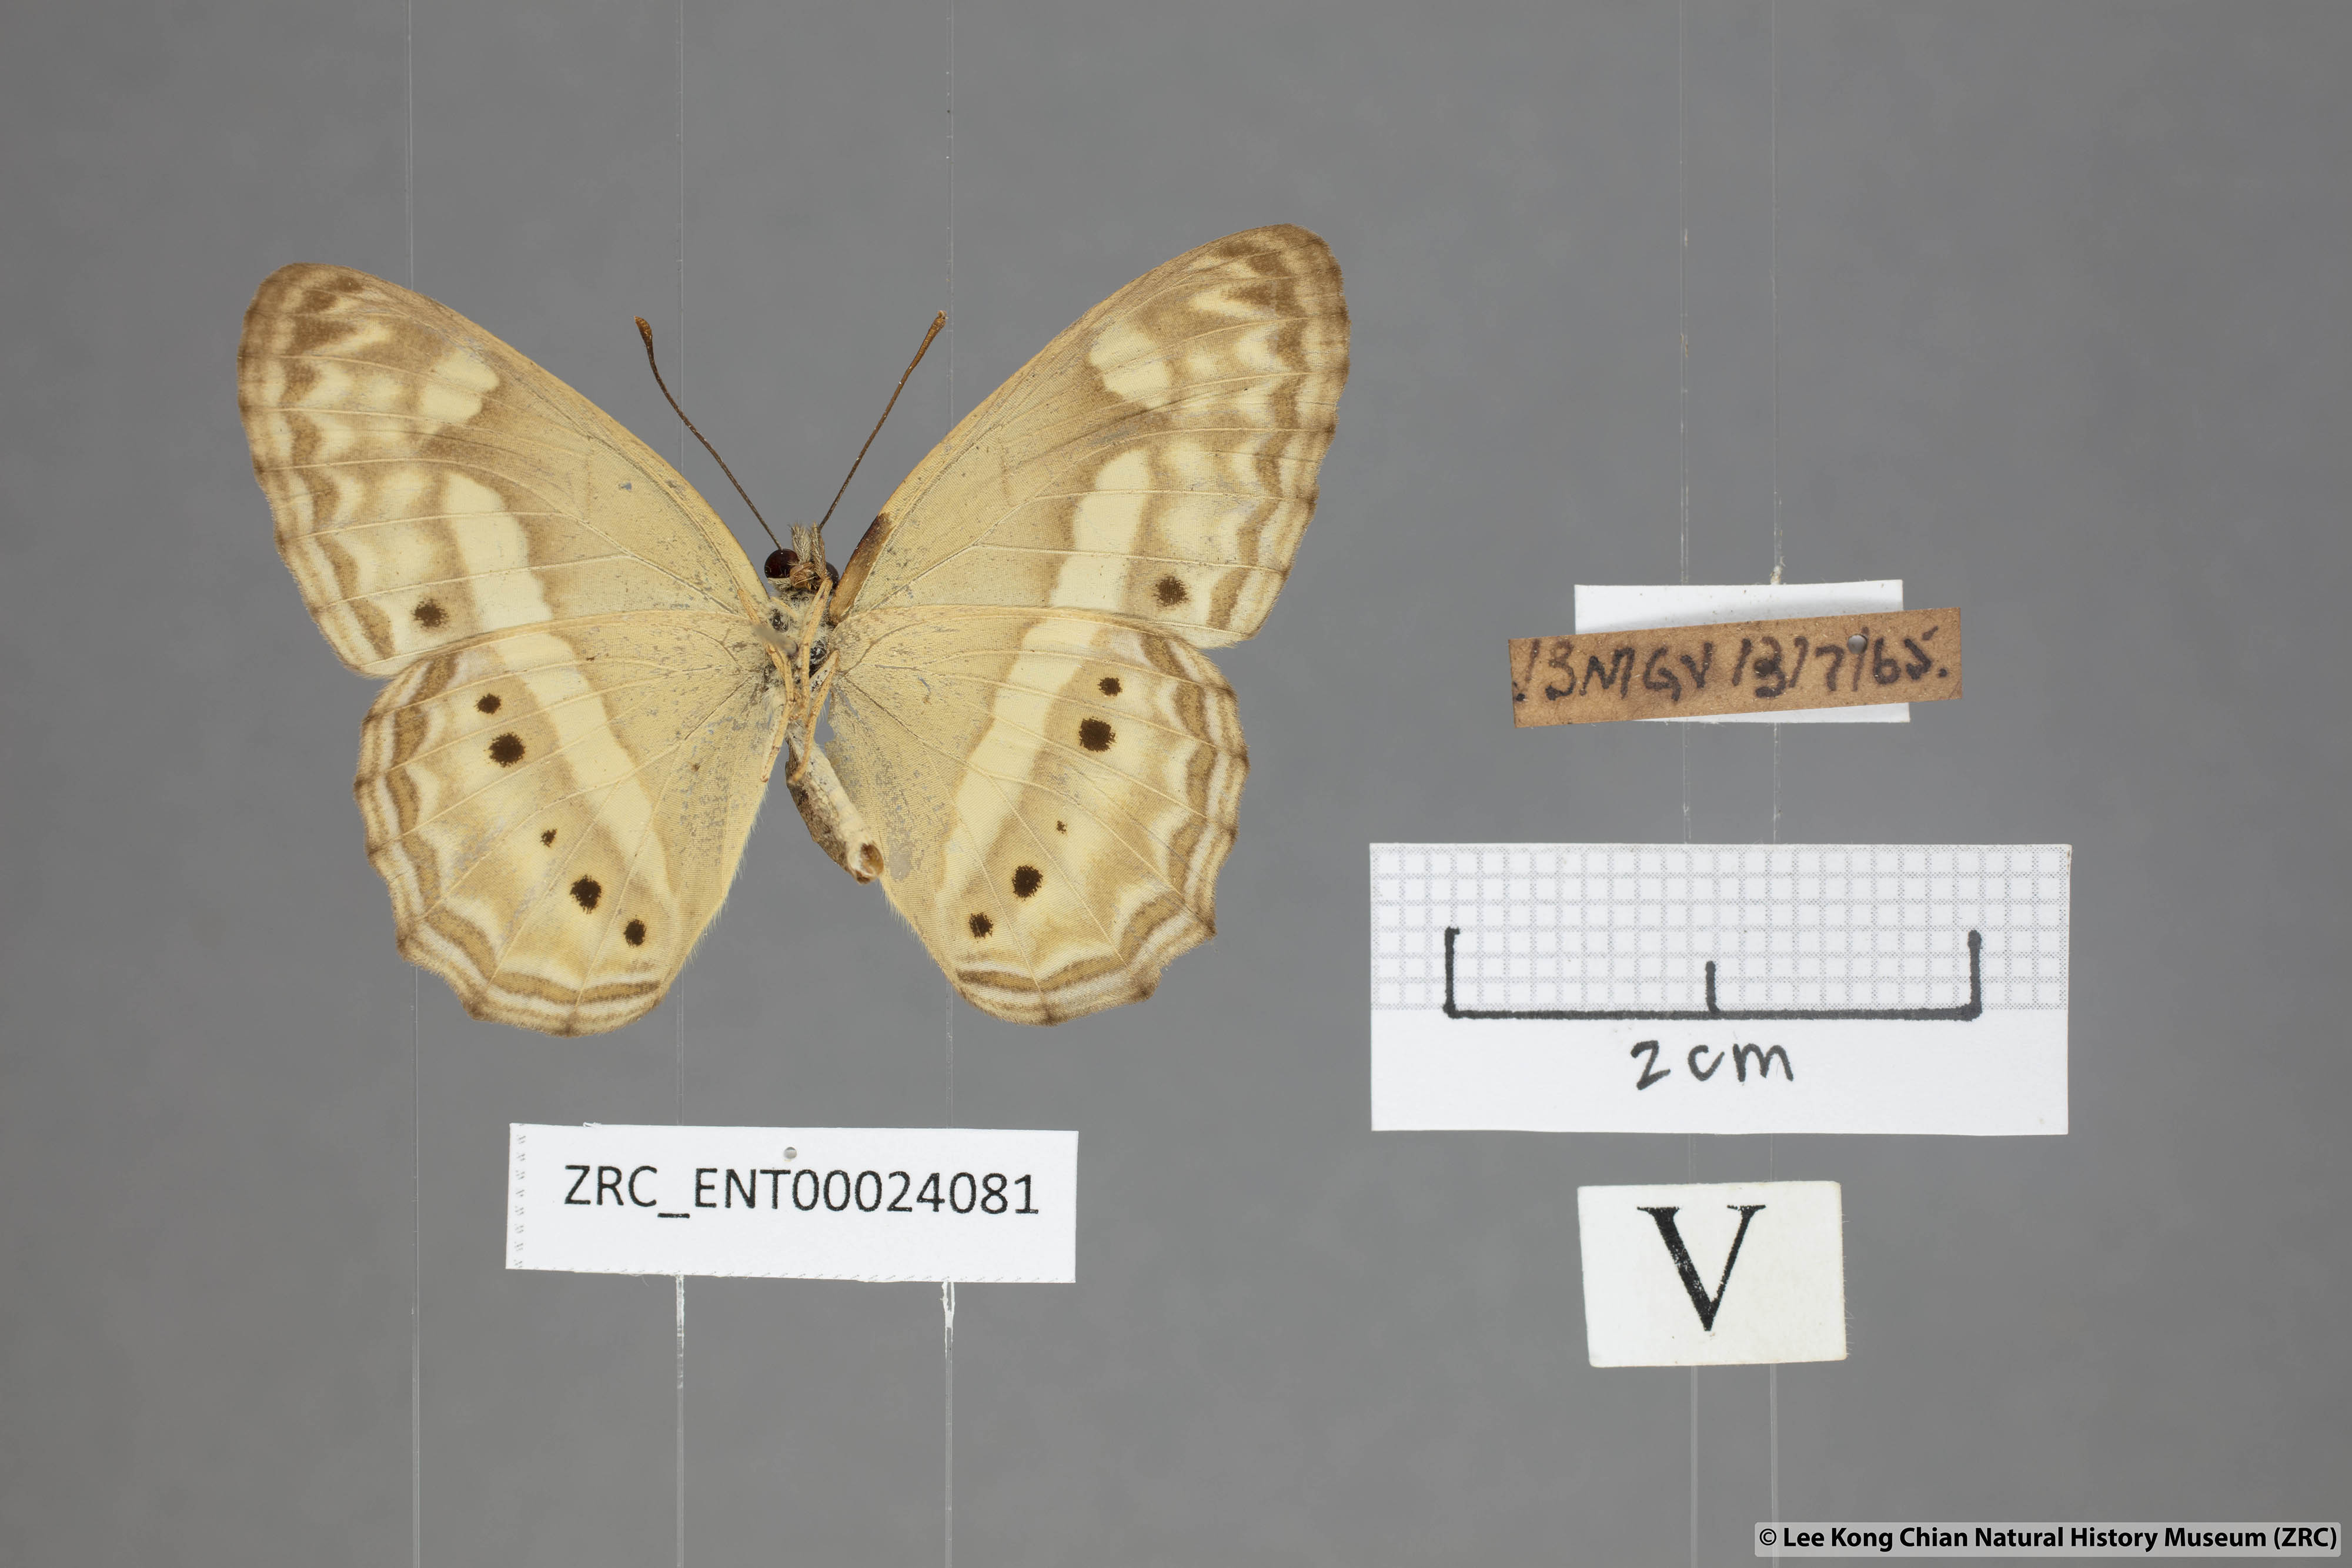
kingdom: Animalia
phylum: Arthropoda
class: Insecta
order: Lepidoptera
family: Nymphalidae
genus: Cirrochroa
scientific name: Cirrochroa fasciata
